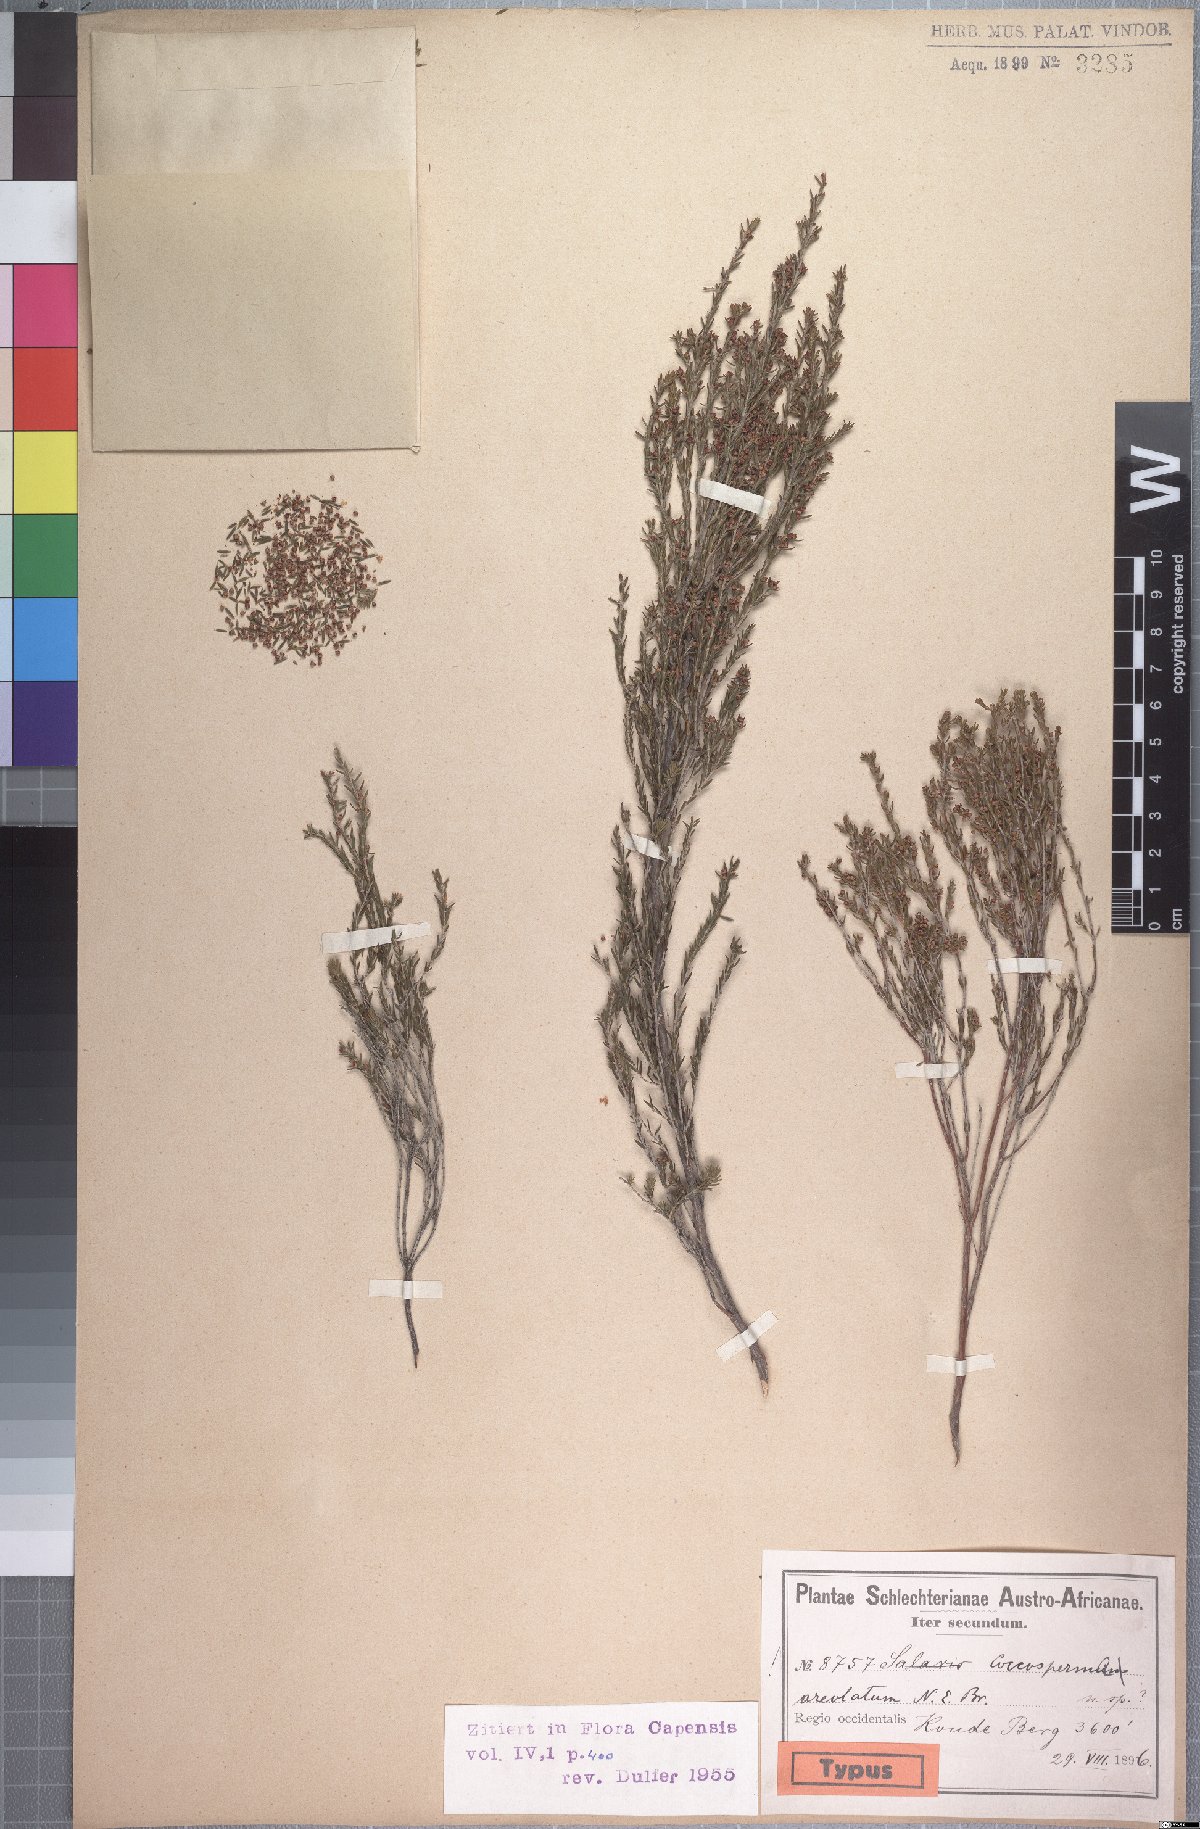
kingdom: Plantae
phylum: Tracheophyta
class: Magnoliopsida
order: Ericales
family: Ericaceae
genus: Erica
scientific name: Erica areolata
